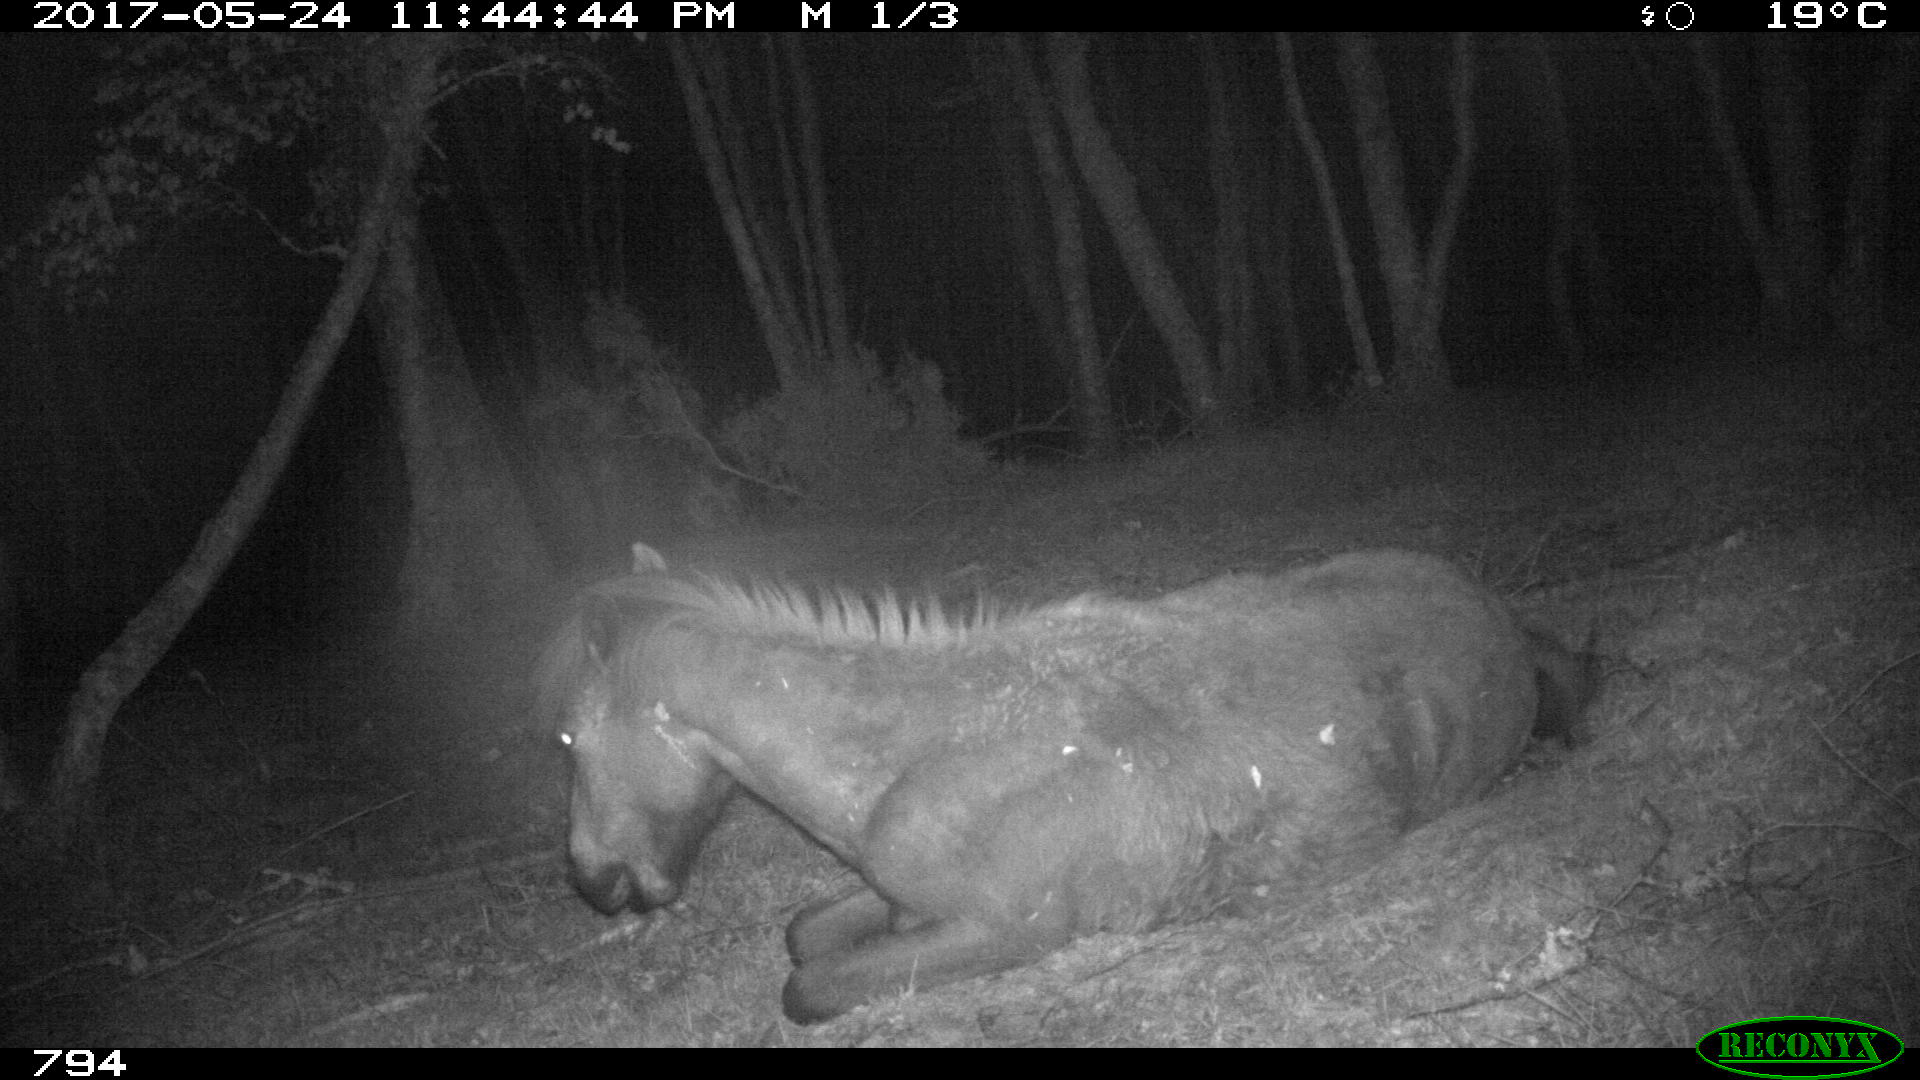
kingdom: Animalia
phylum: Chordata
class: Mammalia
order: Perissodactyla
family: Equidae
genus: Equus
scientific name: Equus caballus
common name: Horse
